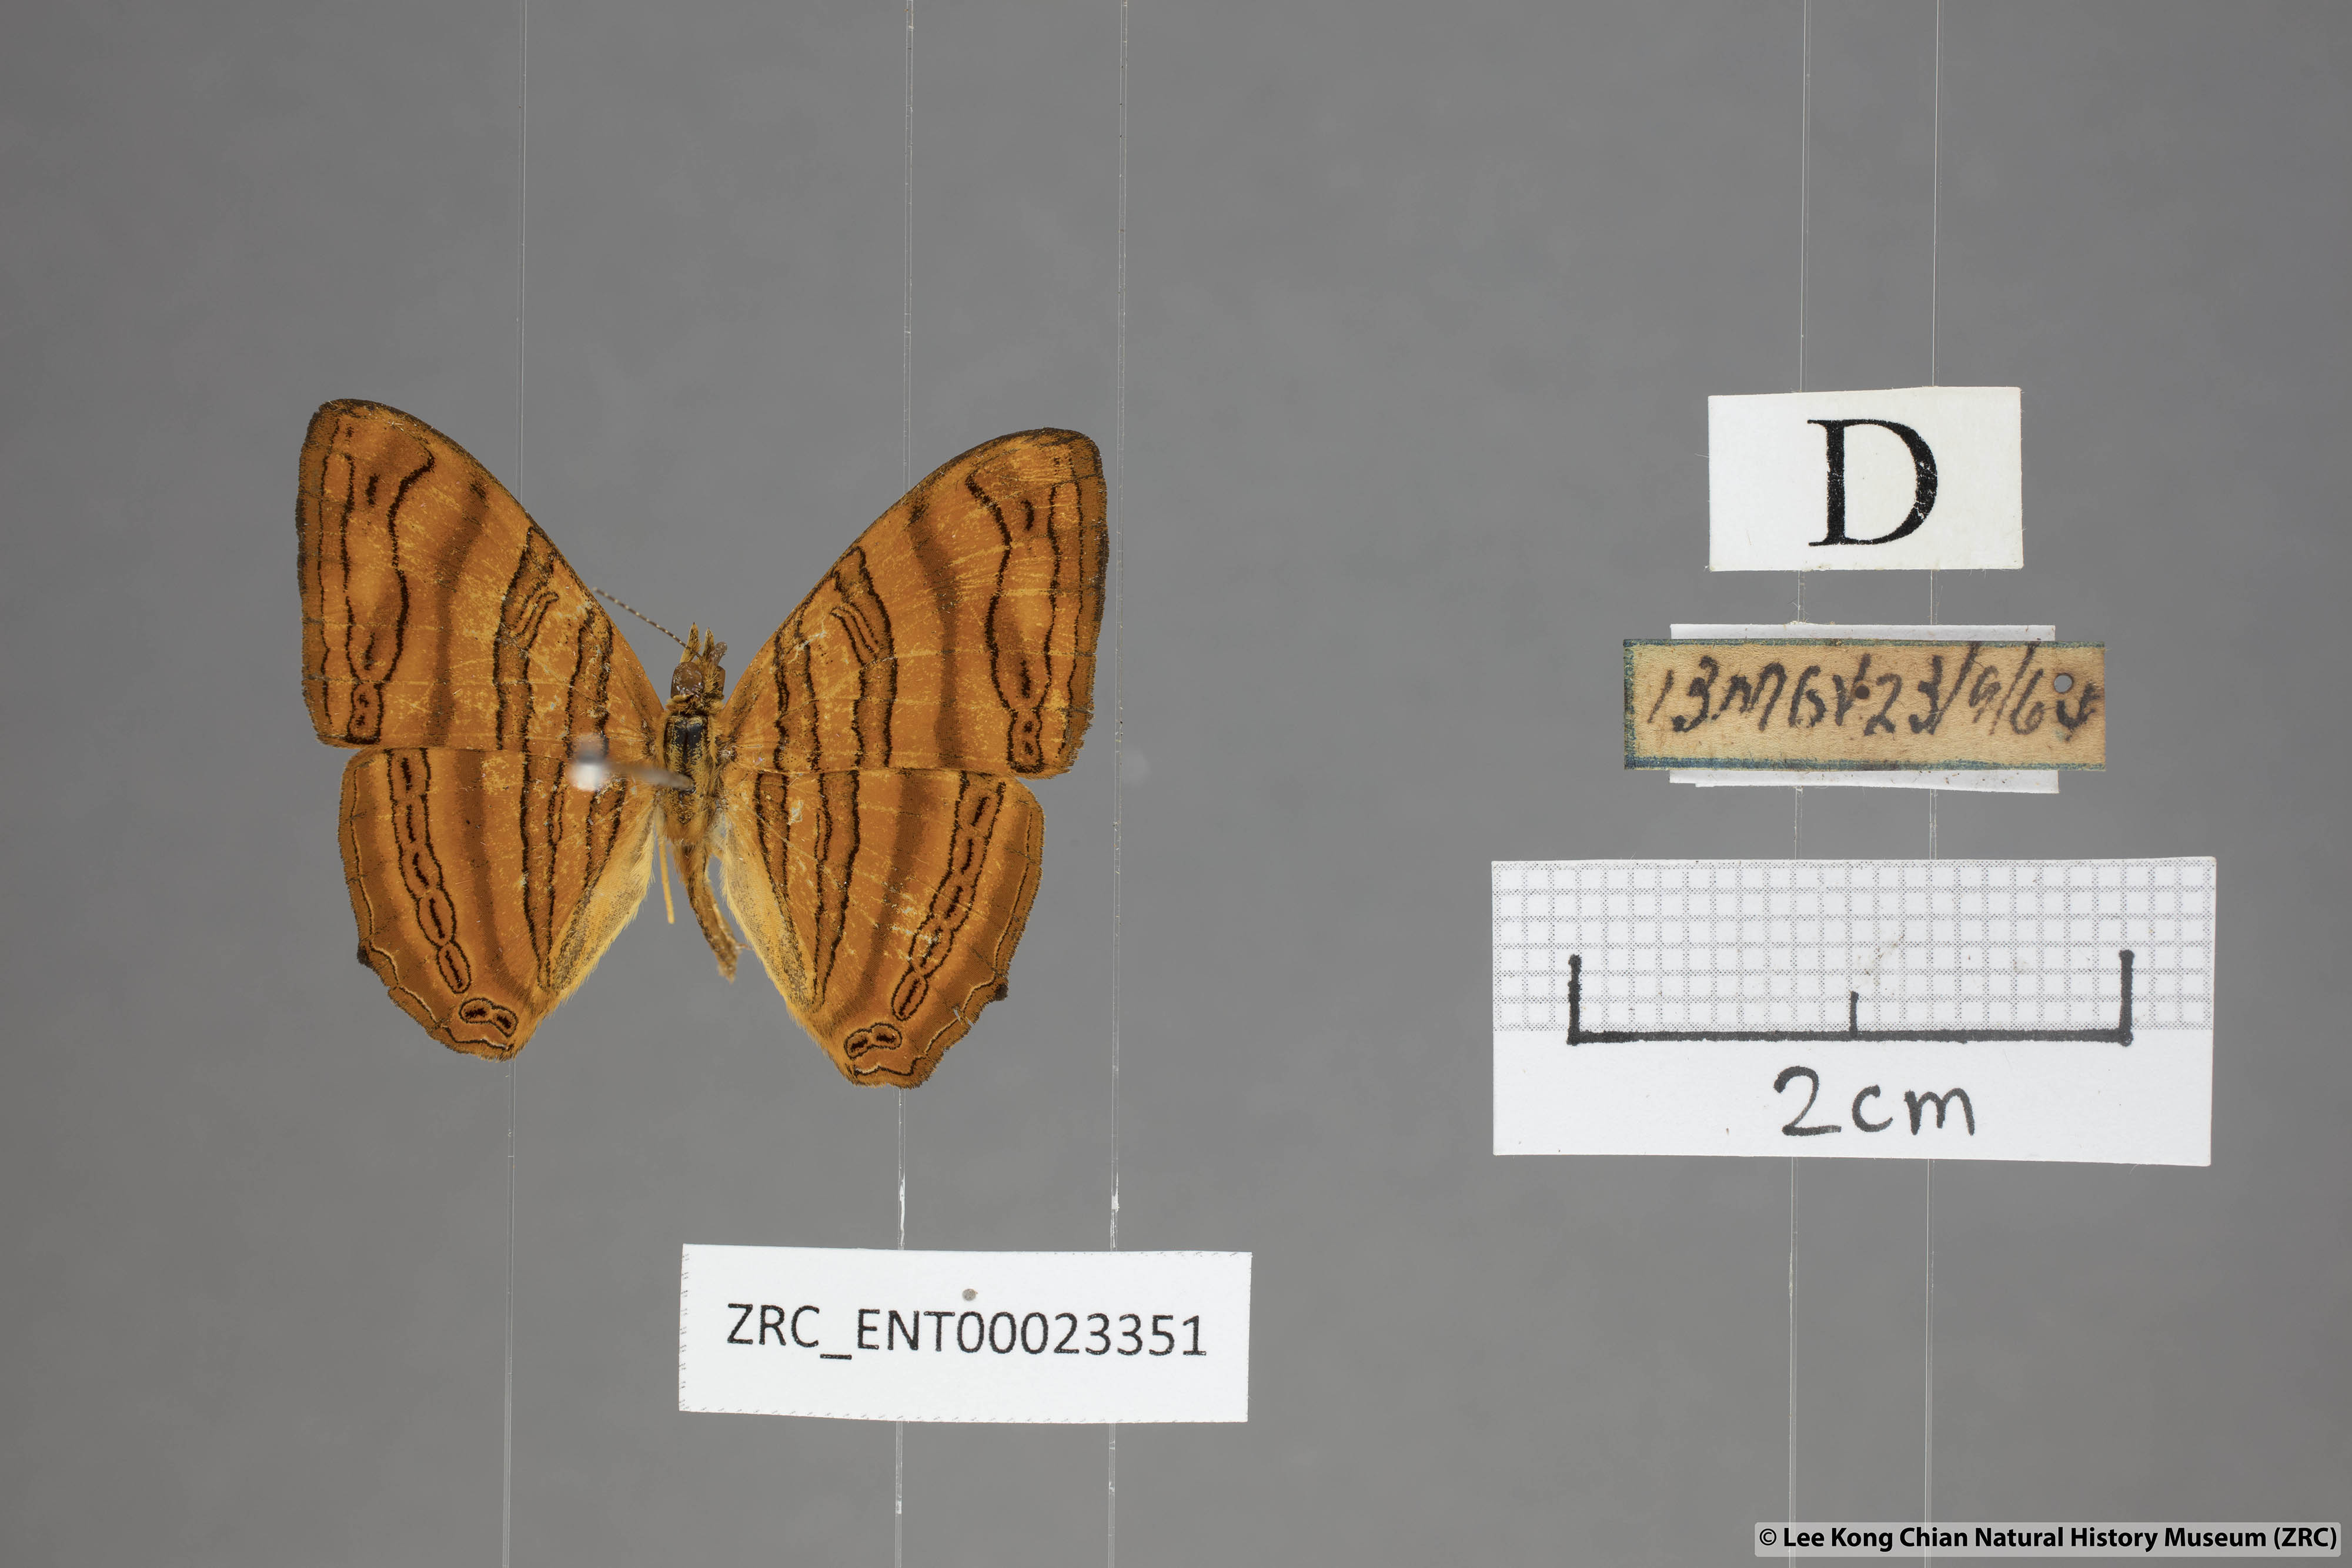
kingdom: Animalia
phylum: Arthropoda
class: Insecta
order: Lepidoptera
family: Nymphalidae
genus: Chersonesia
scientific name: Chersonesia intermedia
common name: Intermediate maplet
